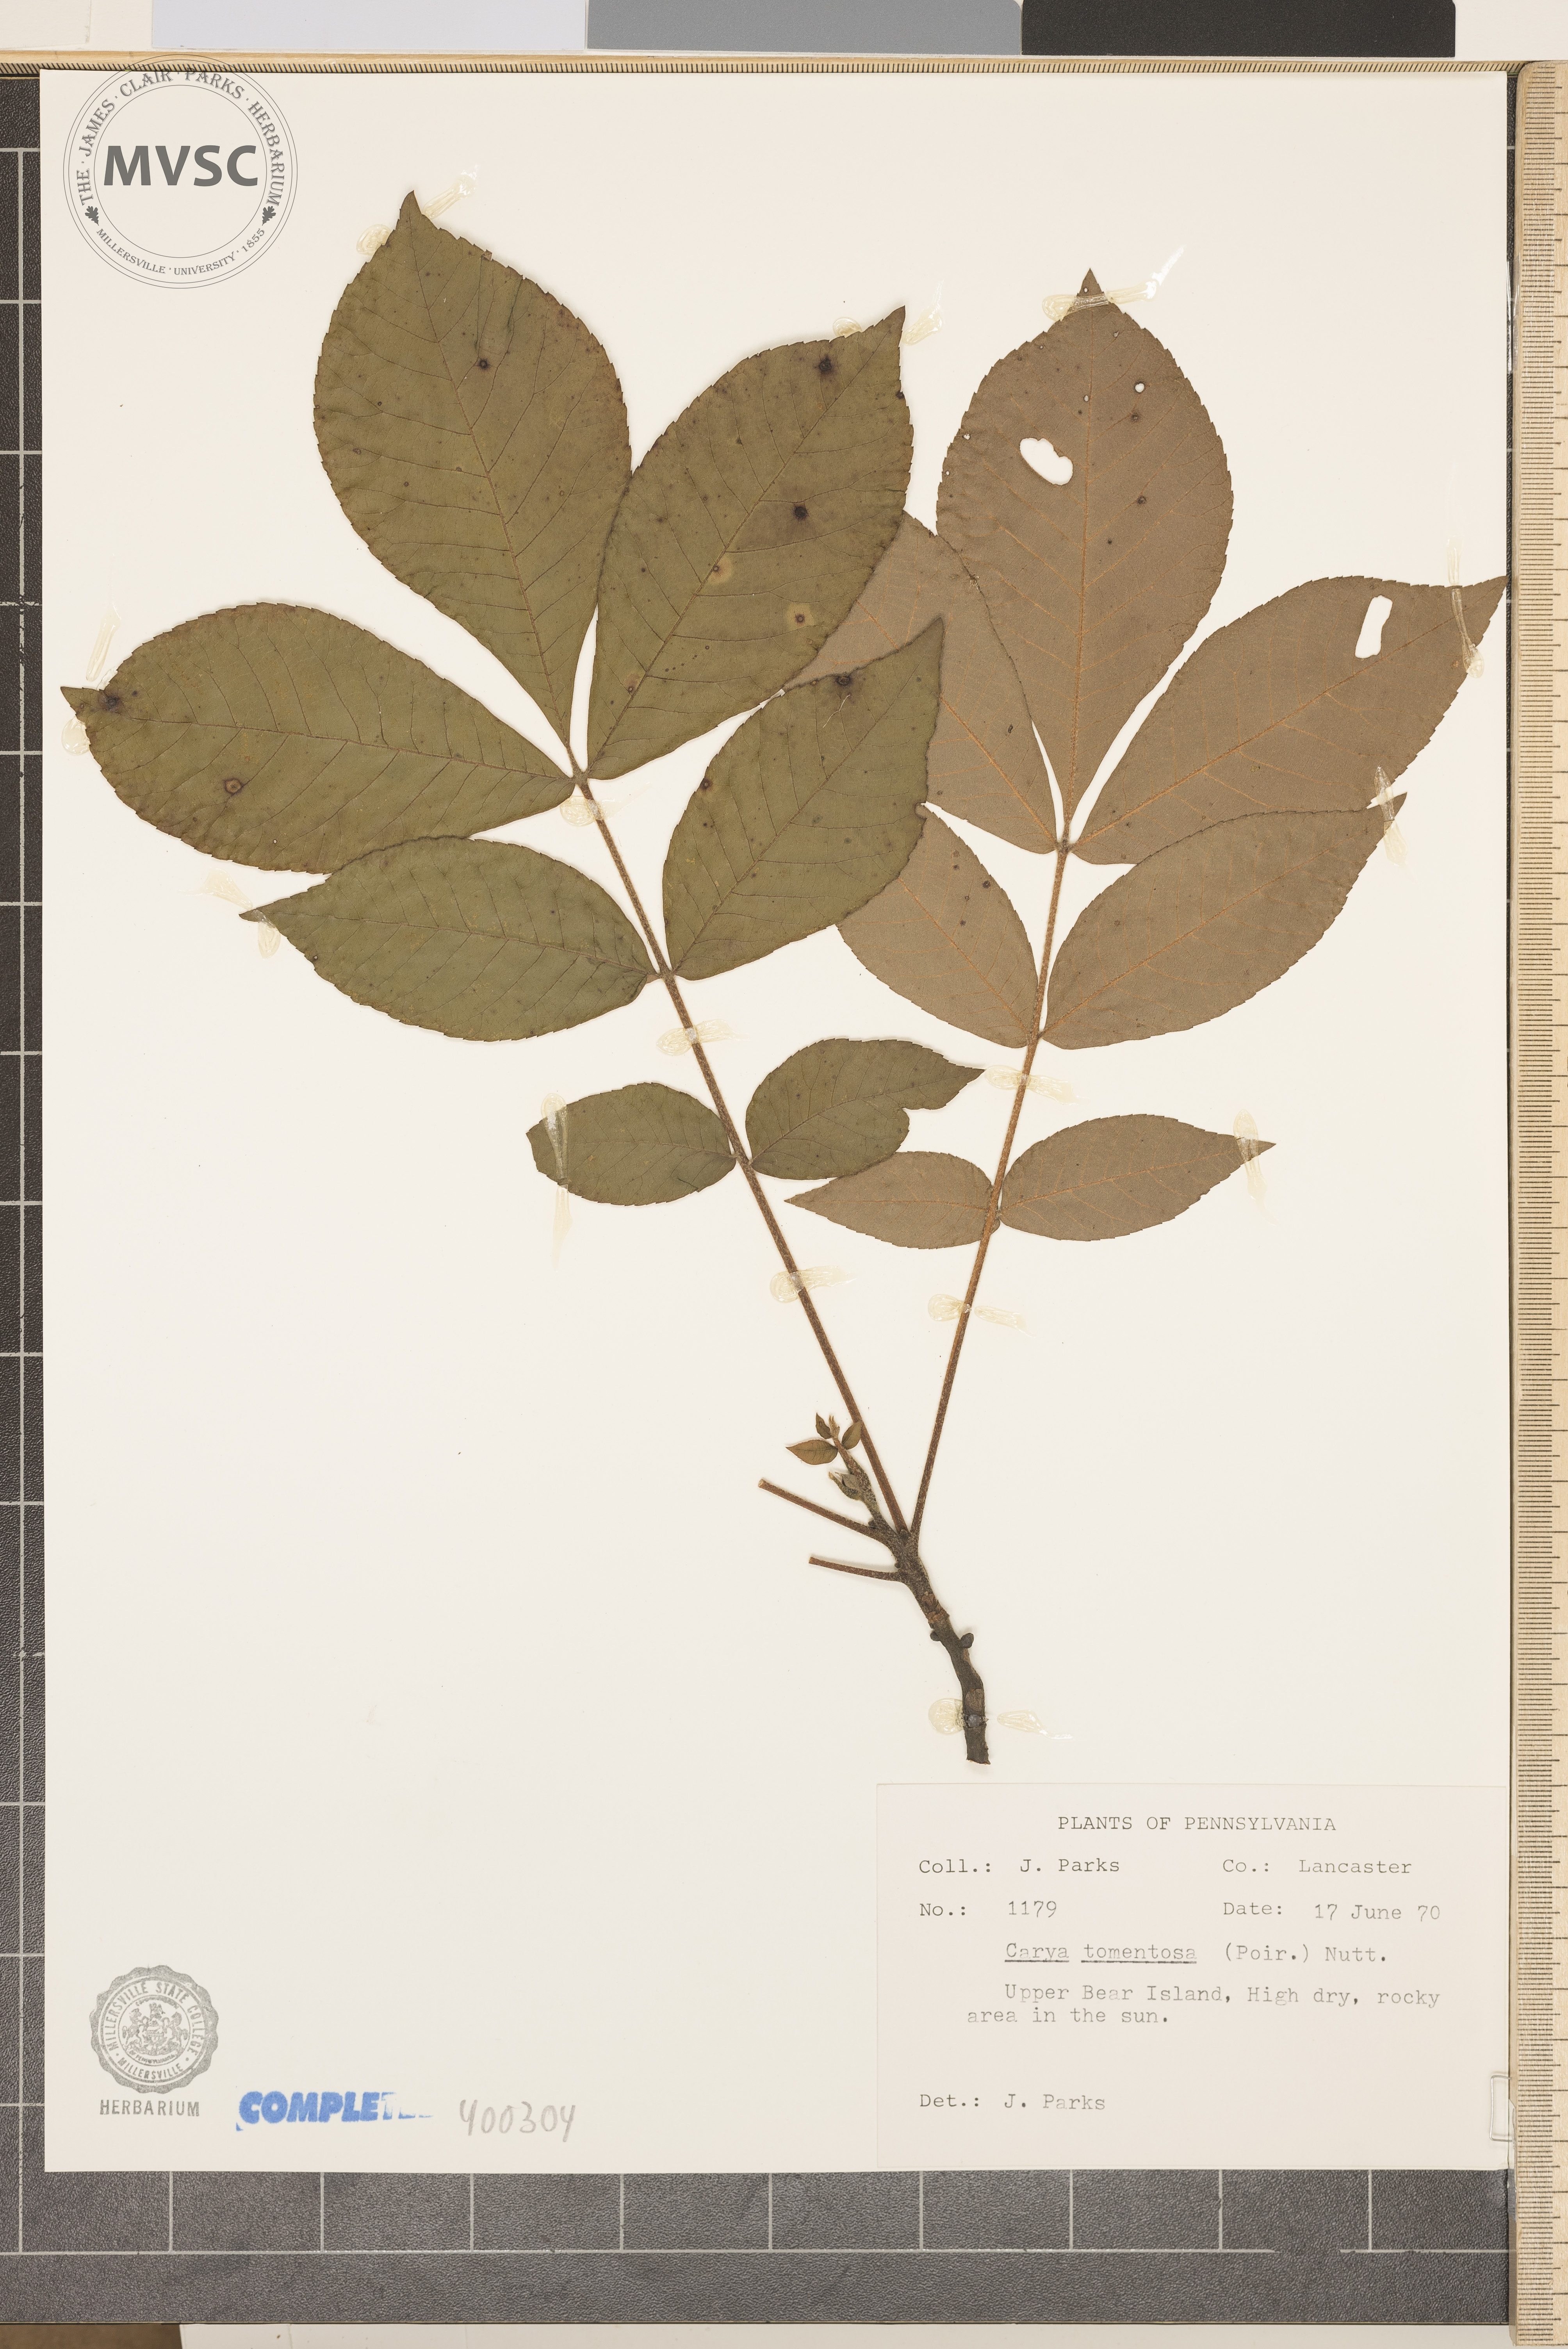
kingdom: Plantae
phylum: Tracheophyta
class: Magnoliopsida
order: Fagales
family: Juglandaceae
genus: Carya
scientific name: Carya alba
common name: mockernut hickory
